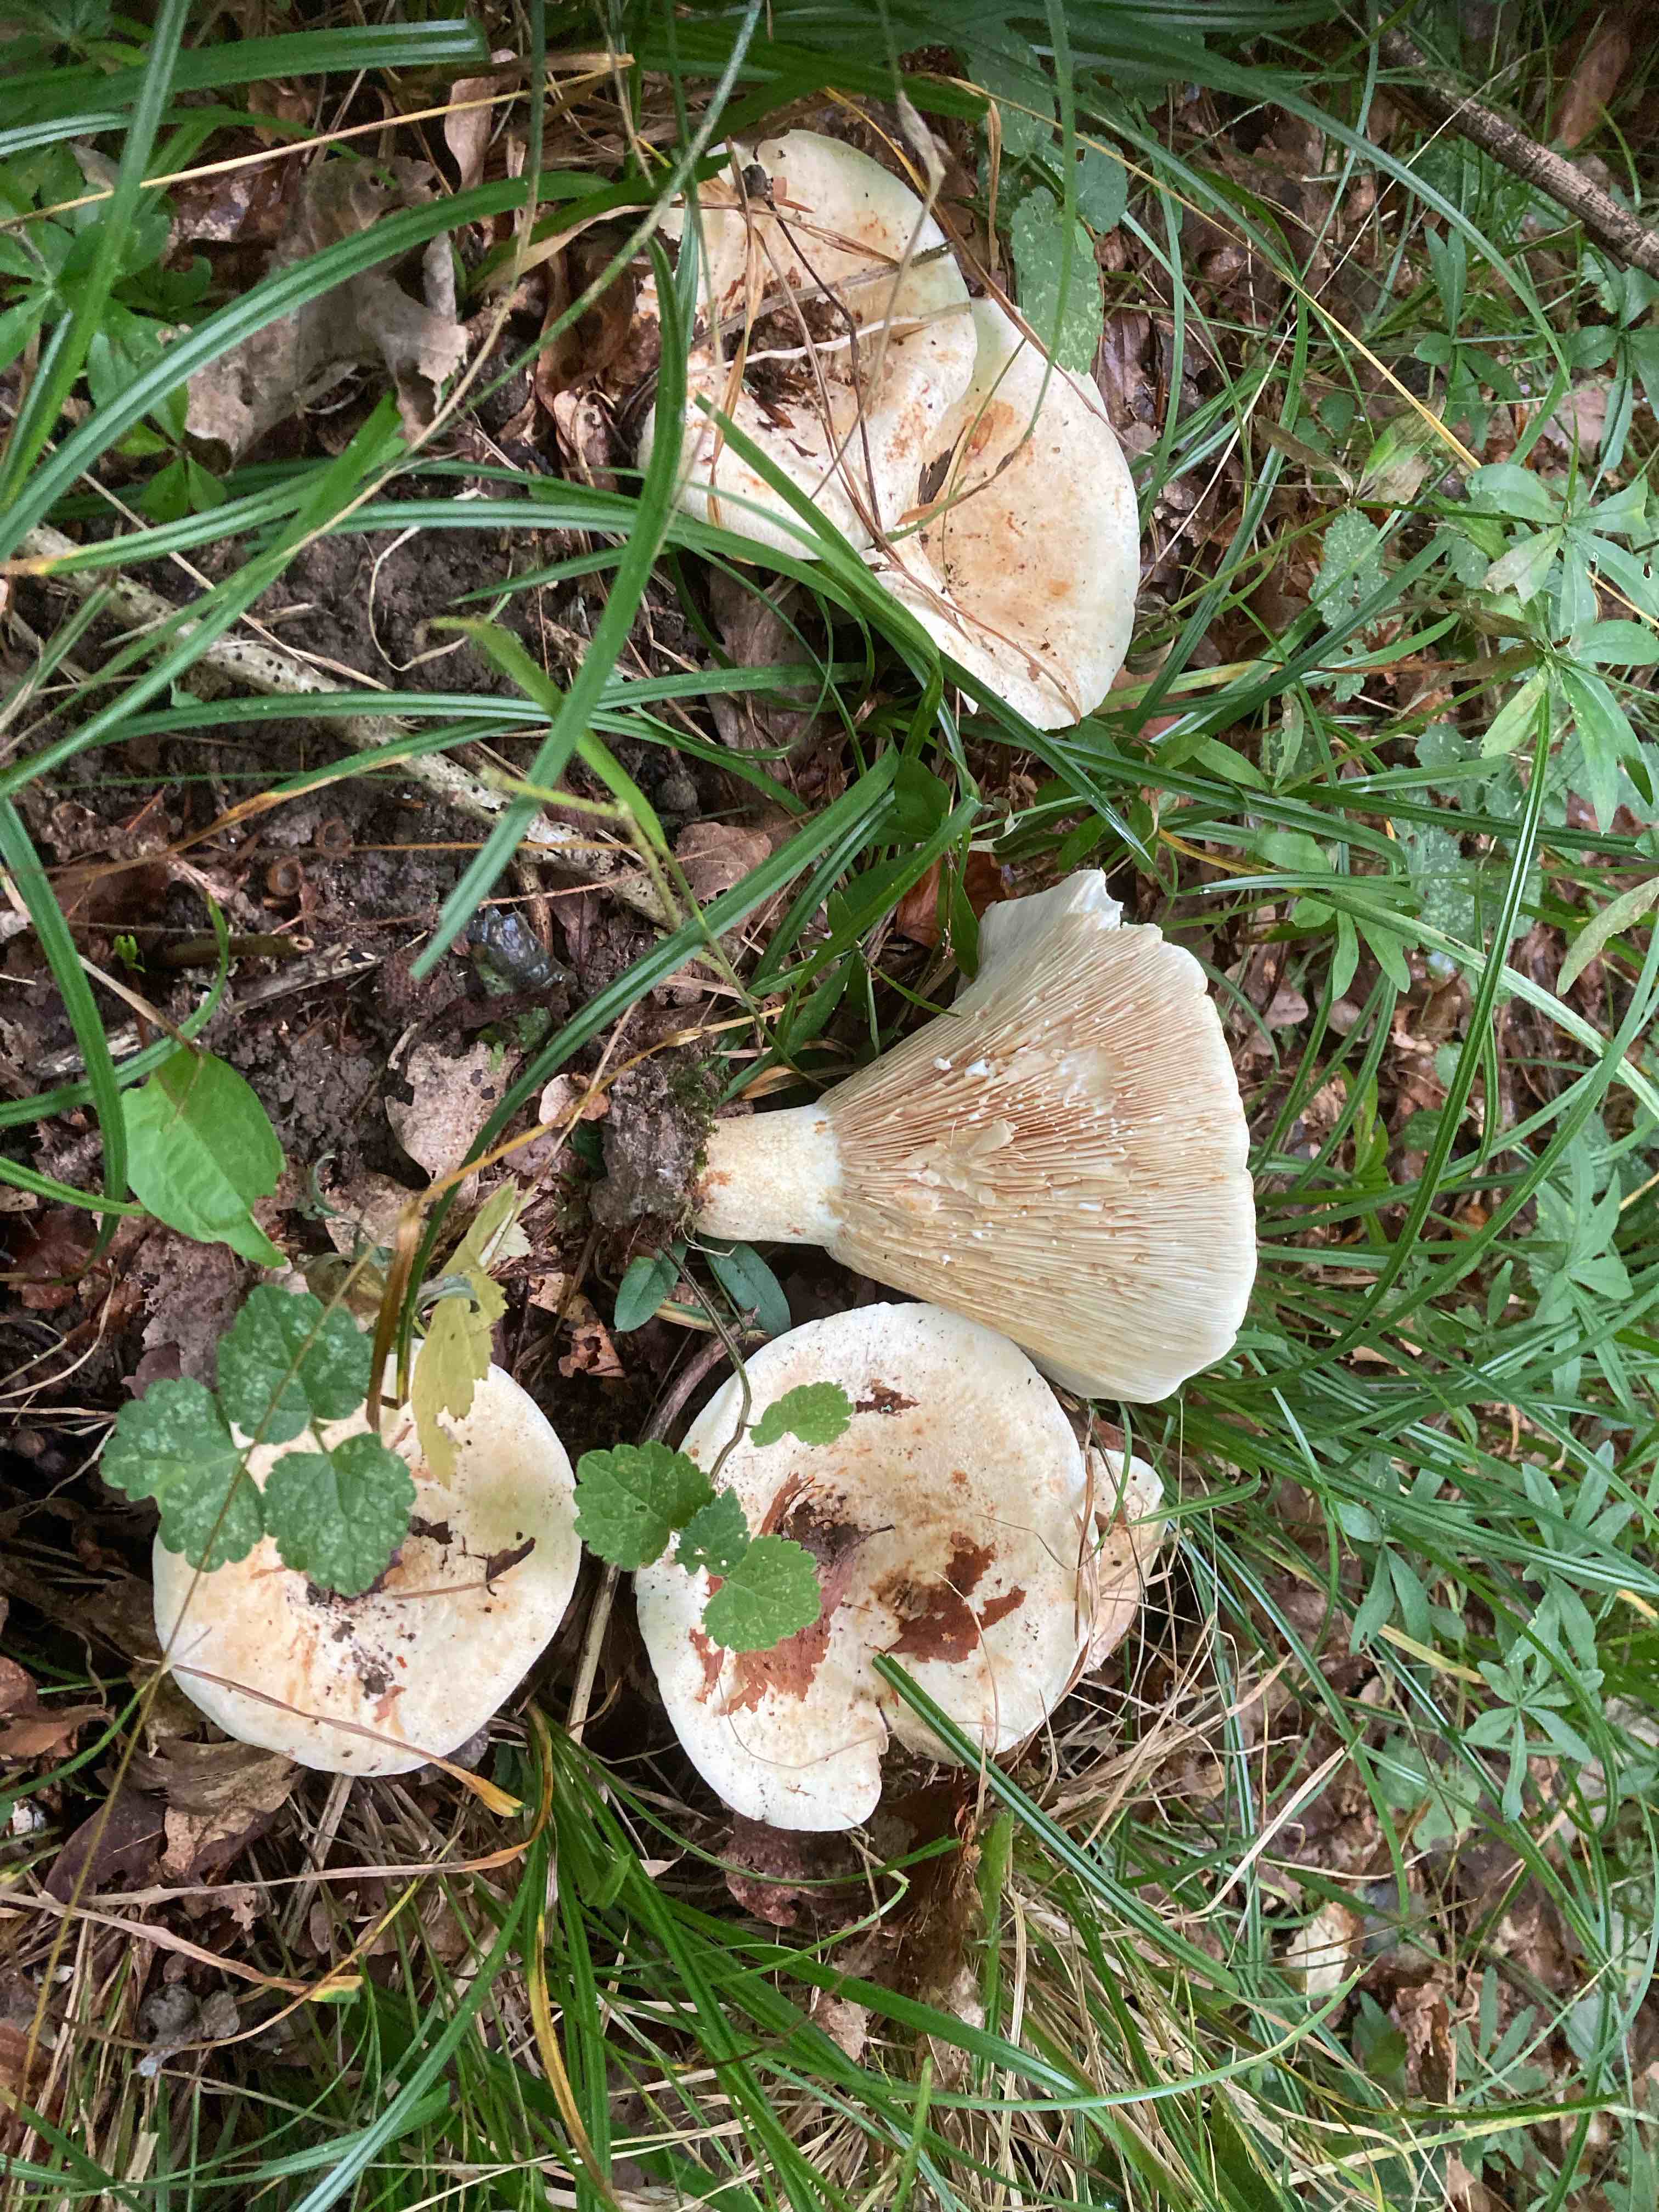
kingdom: Fungi
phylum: Basidiomycota
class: Agaricomycetes
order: Russulales
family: Russulaceae
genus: Lactifluus
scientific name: Lactifluus vellereus
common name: hvidfiltet mælkehat
